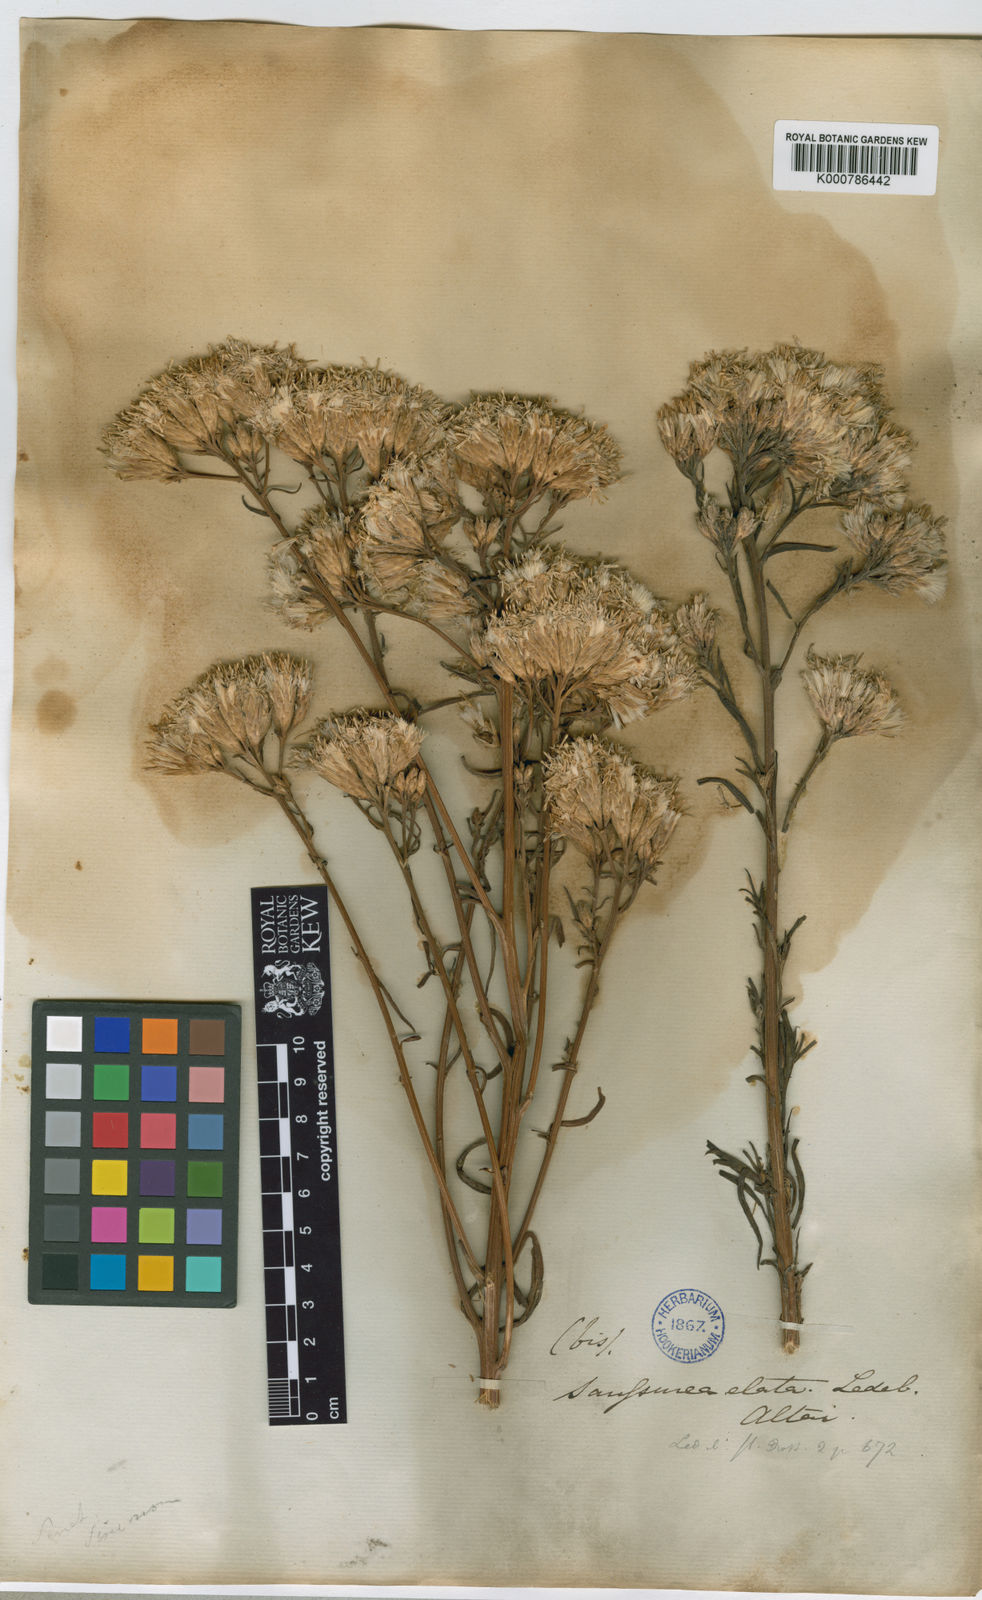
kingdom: Plantae
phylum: Tracheophyta
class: Magnoliopsida
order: Asterales
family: Asteraceae
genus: Saussurea
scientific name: Saussurea elata
